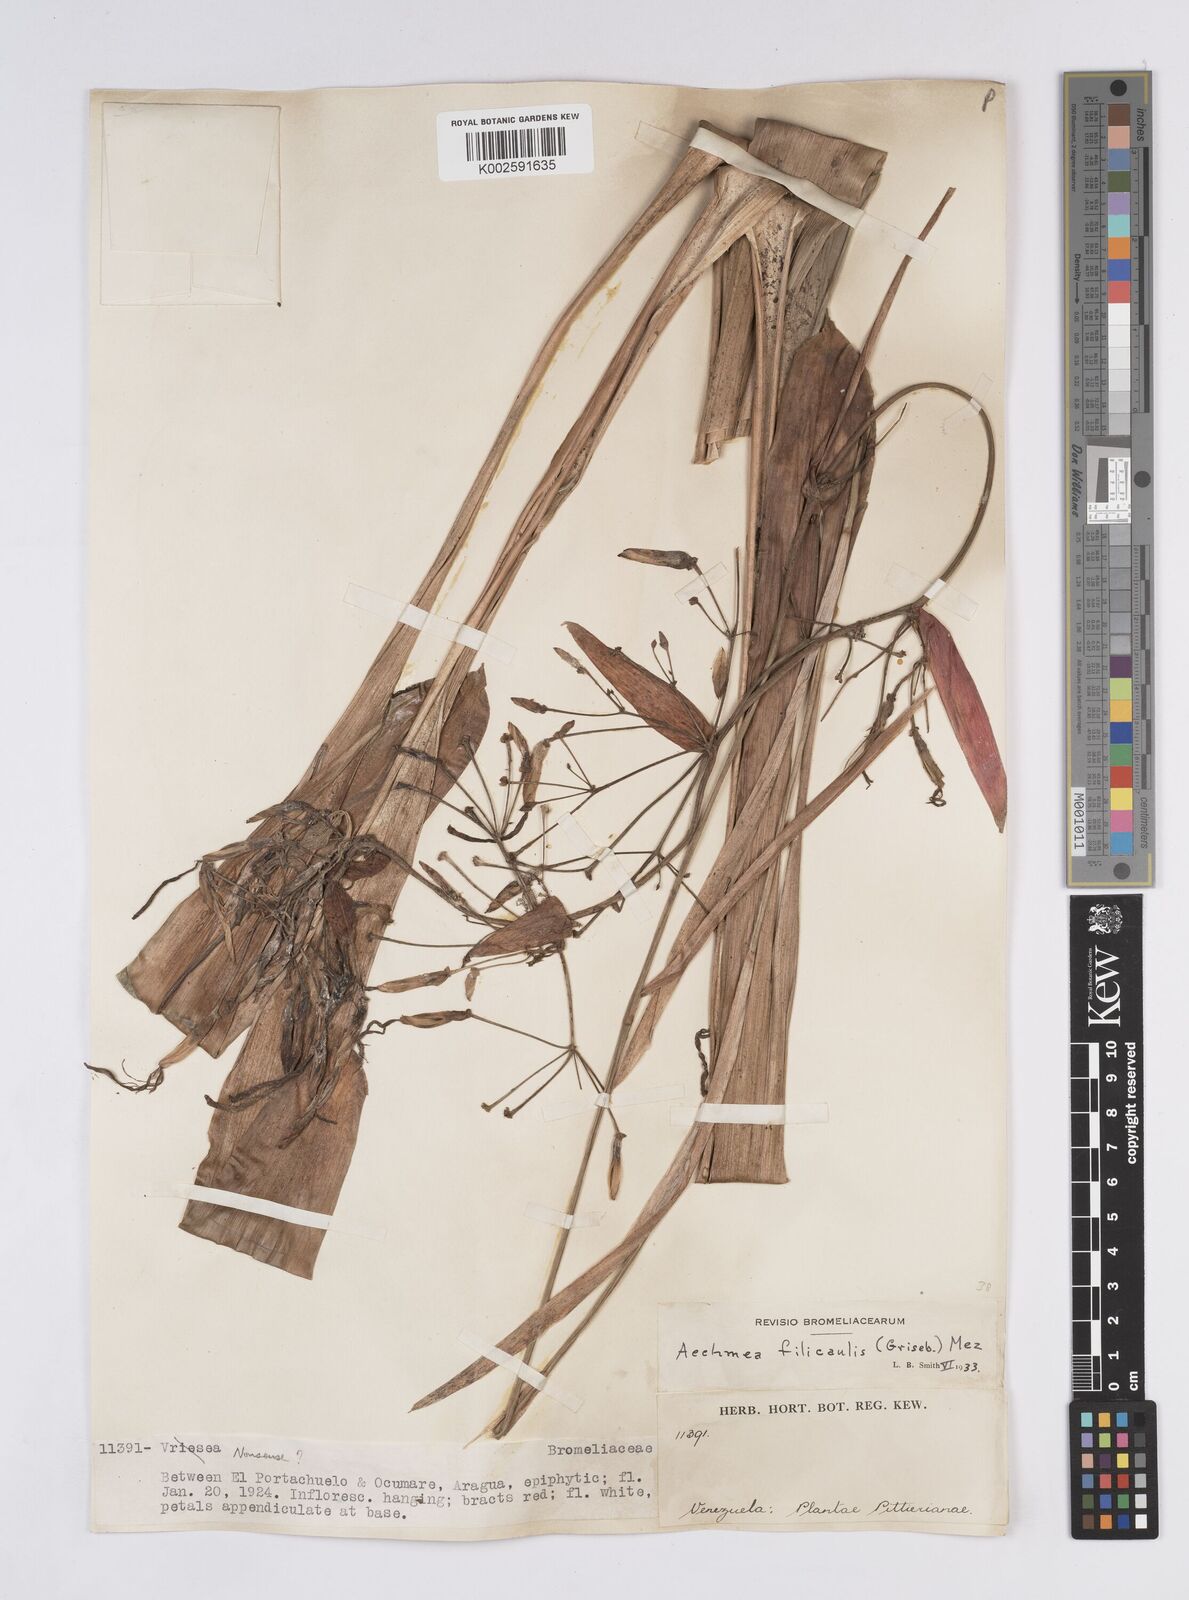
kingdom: Plantae
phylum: Tracheophyta
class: Liliopsida
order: Poales
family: Bromeliaceae
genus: Aechmea
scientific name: Aechmea filicaulis
